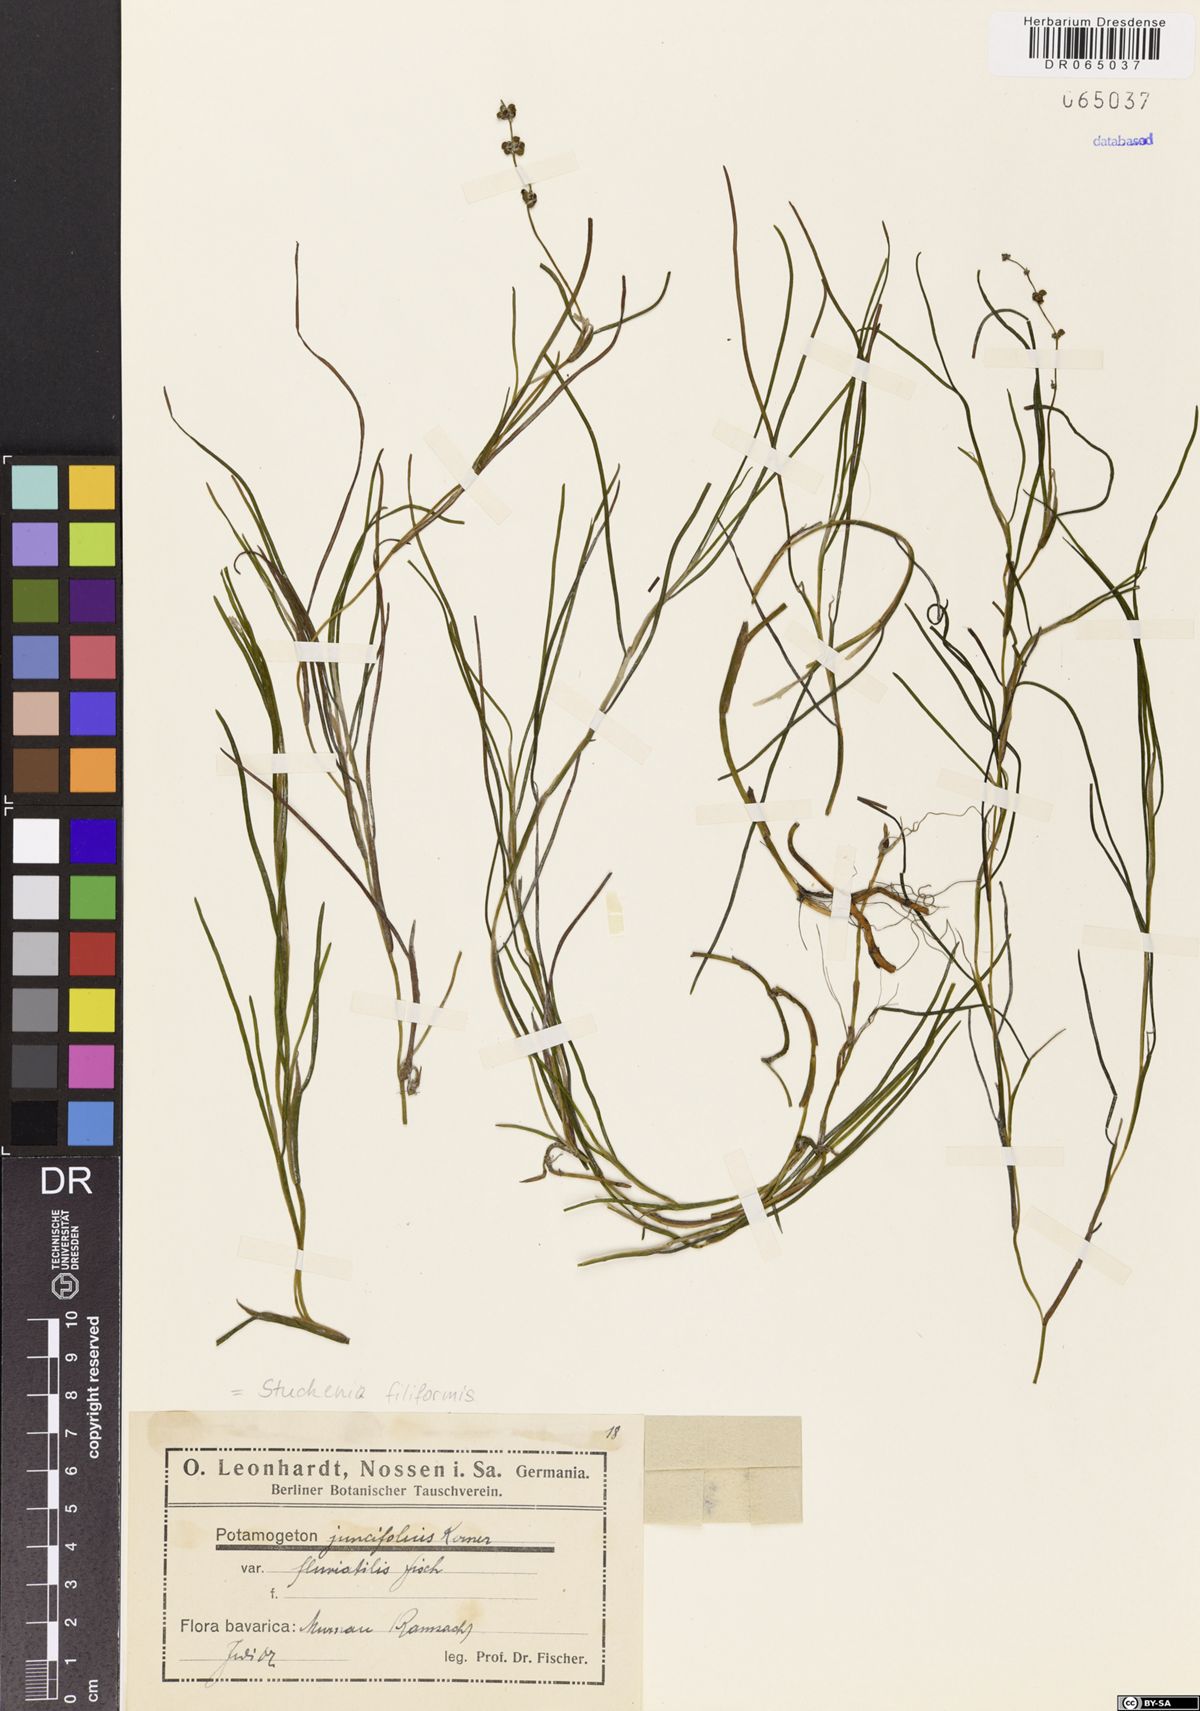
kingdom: Plantae
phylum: Tracheophyta
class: Liliopsida
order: Alismatales
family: Potamogetonaceae
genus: Stuckenia
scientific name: Stuckenia filiformis
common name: Alpine thread-leaved pondweed
